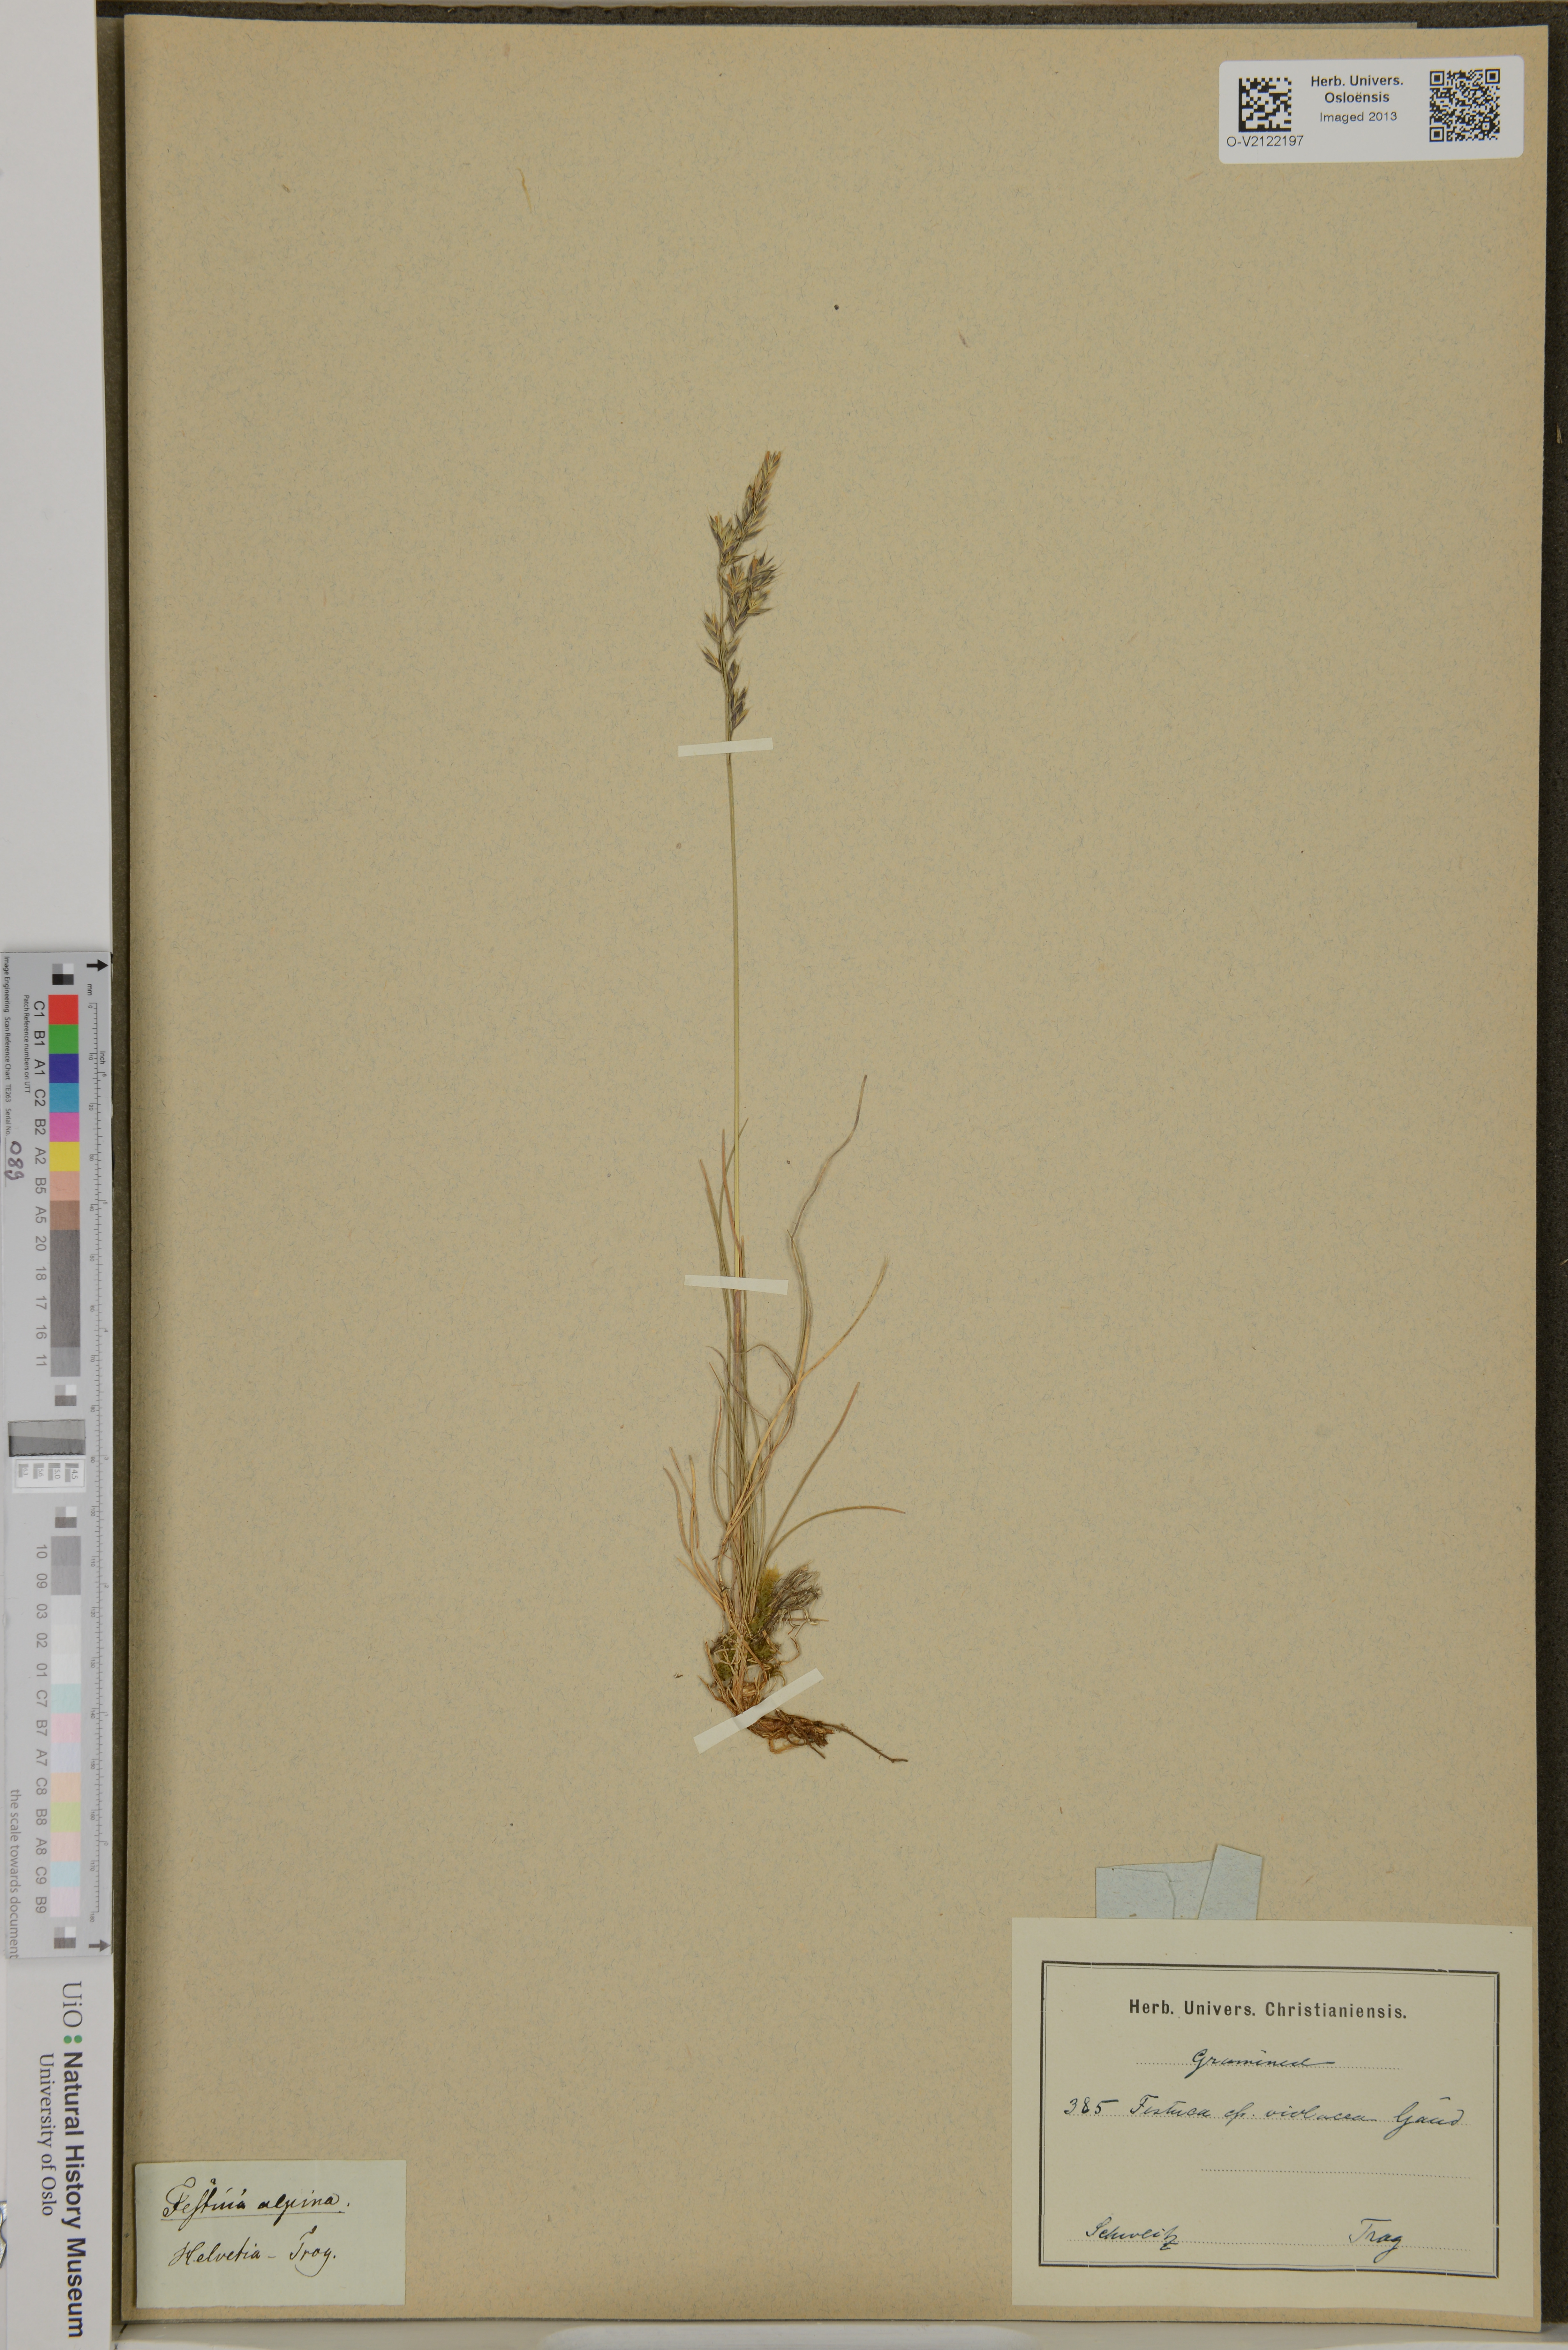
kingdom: Plantae
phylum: Tracheophyta
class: Liliopsida
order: Poales
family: Poaceae
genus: Festuca
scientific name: Festuca violacea
